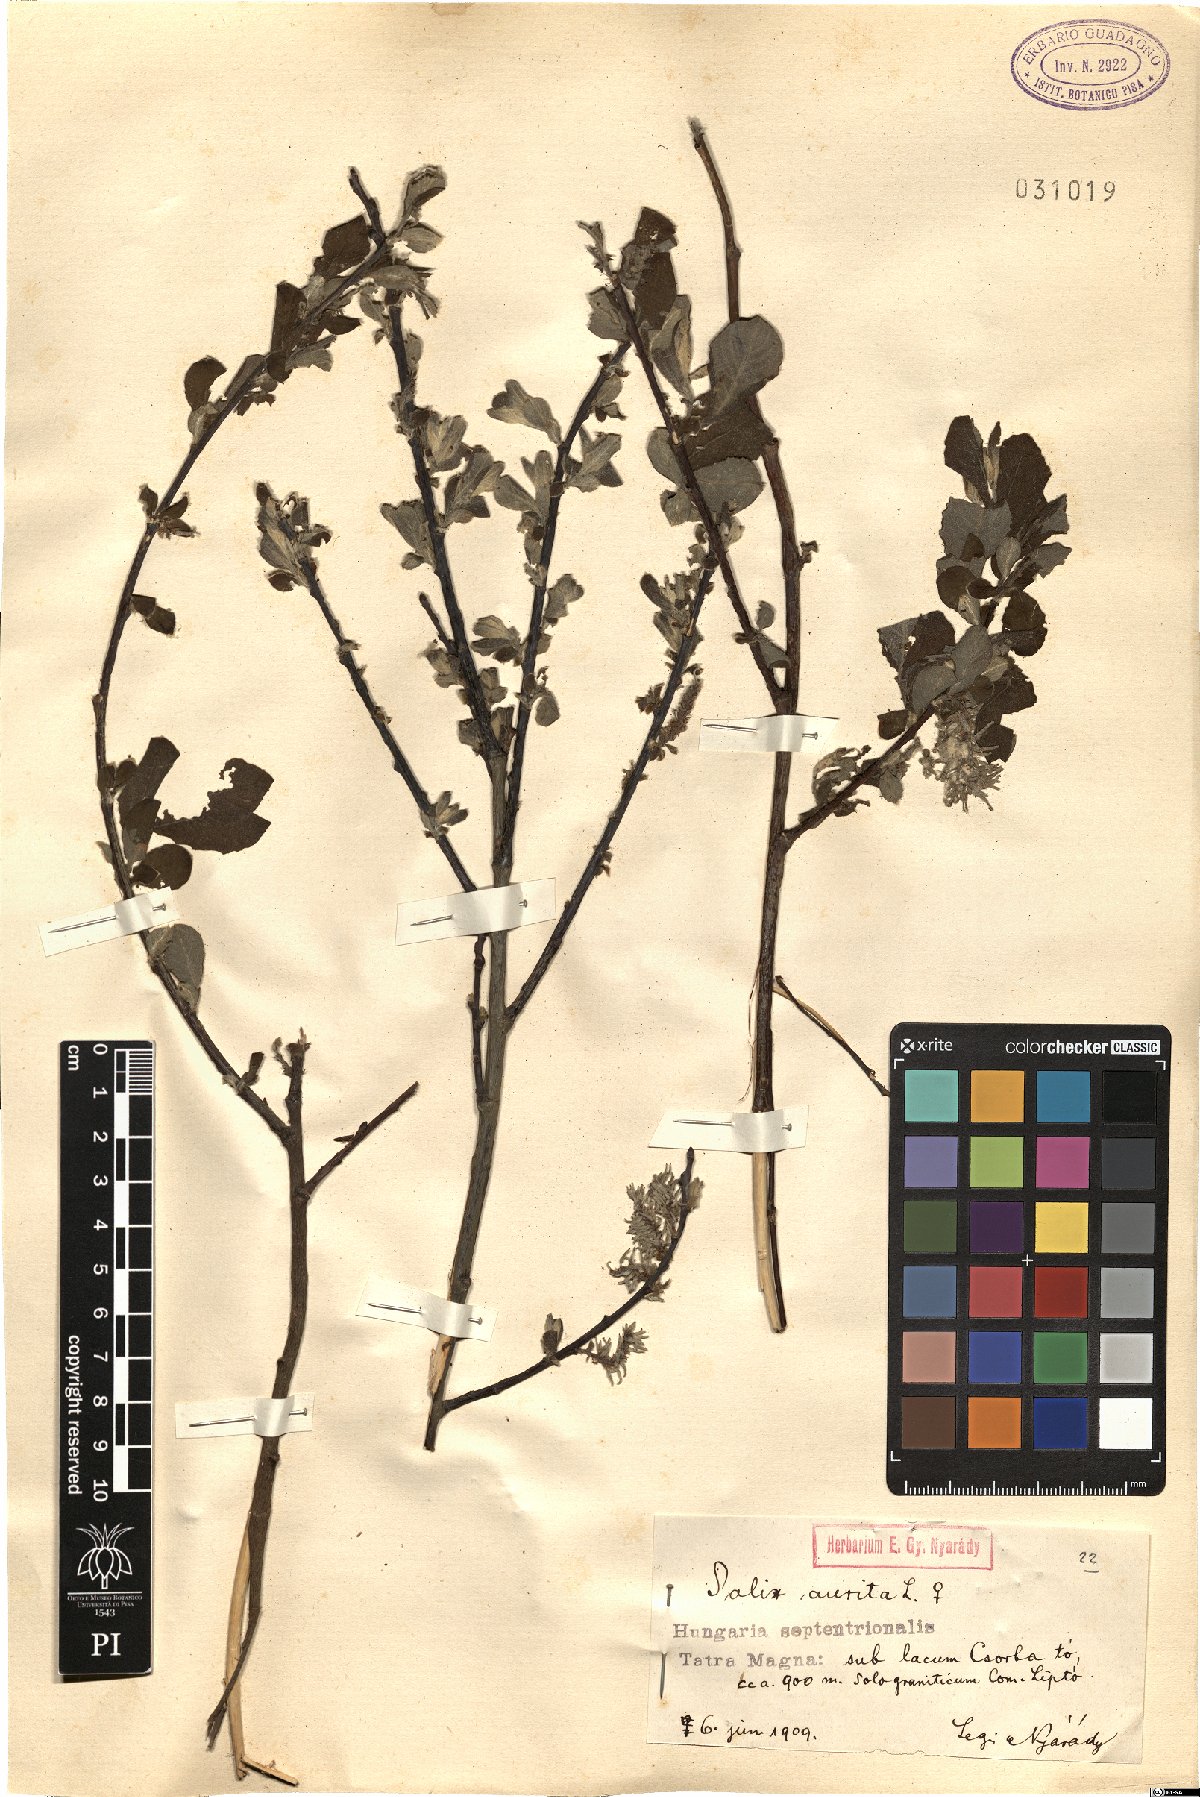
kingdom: Plantae
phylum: Tracheophyta
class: Magnoliopsida
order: Malpighiales
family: Salicaceae
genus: Salix
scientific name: Salix aurita
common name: Eared willow
